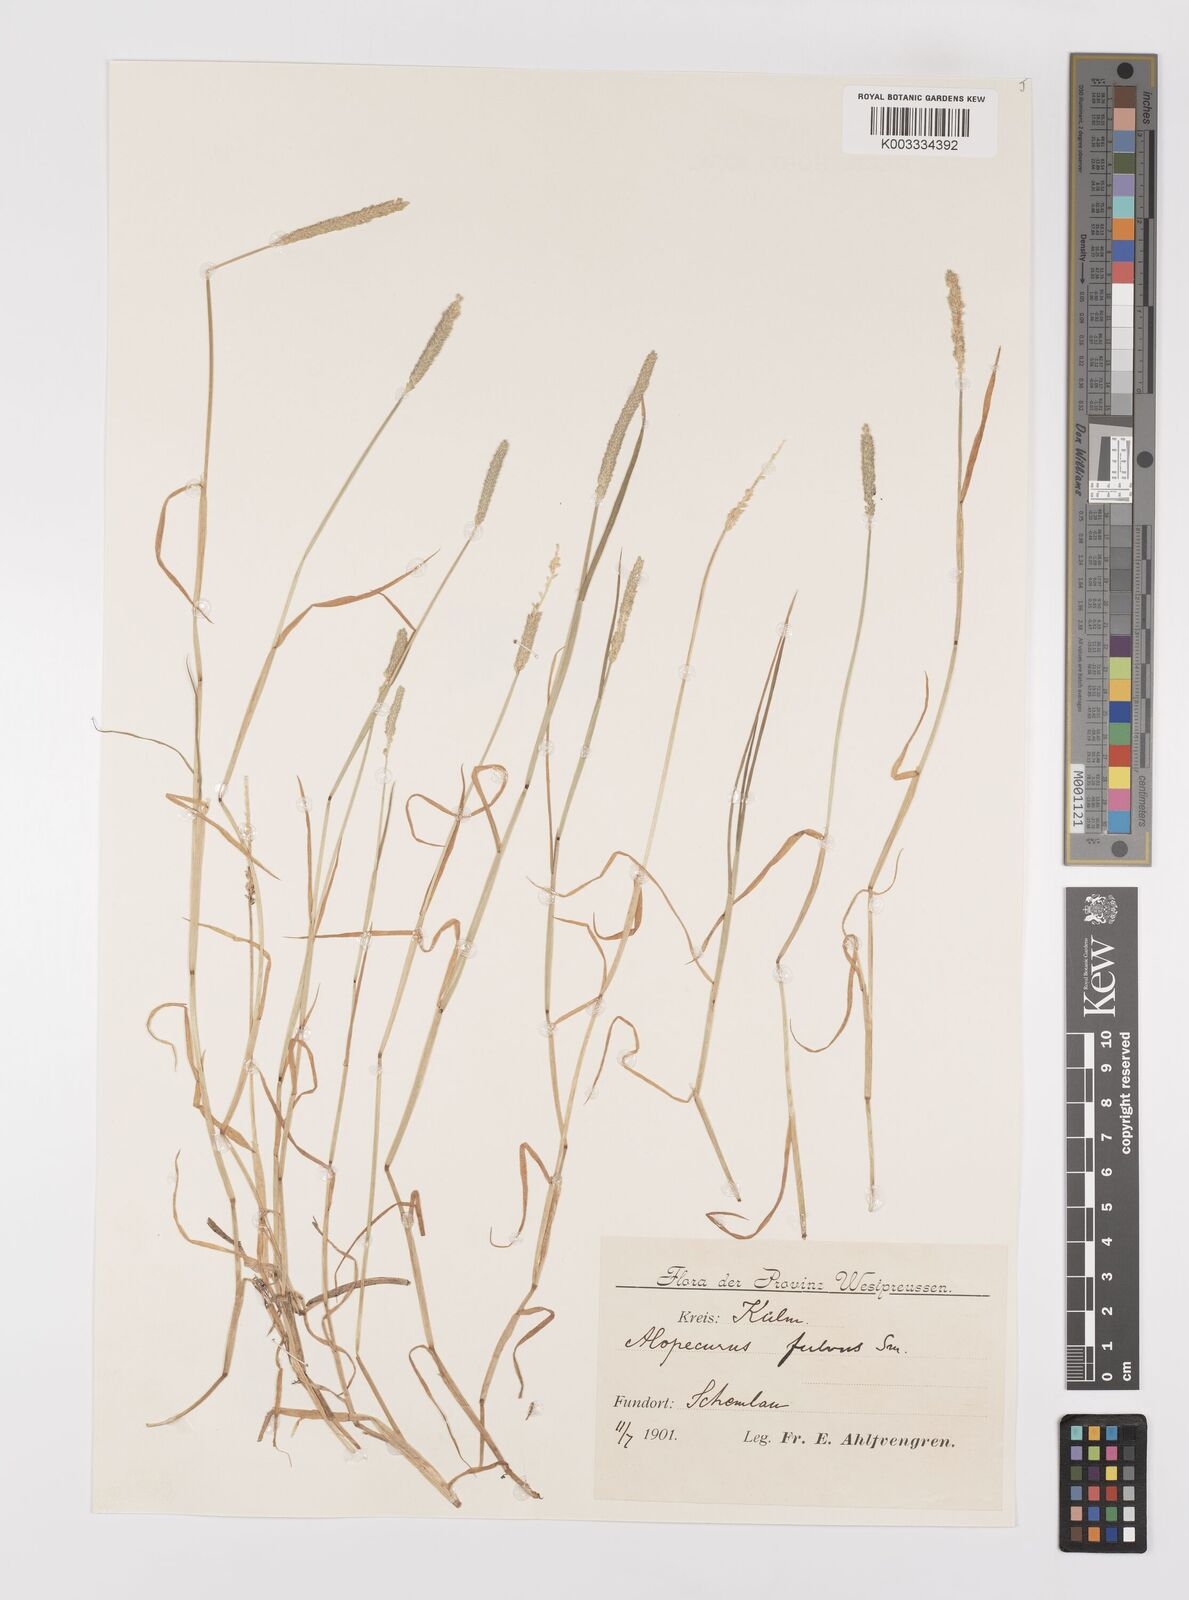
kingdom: Plantae
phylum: Tracheophyta
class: Liliopsida
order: Poales
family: Poaceae
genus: Alopecurus
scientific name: Alopecurus aequalis
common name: Orange foxtail
